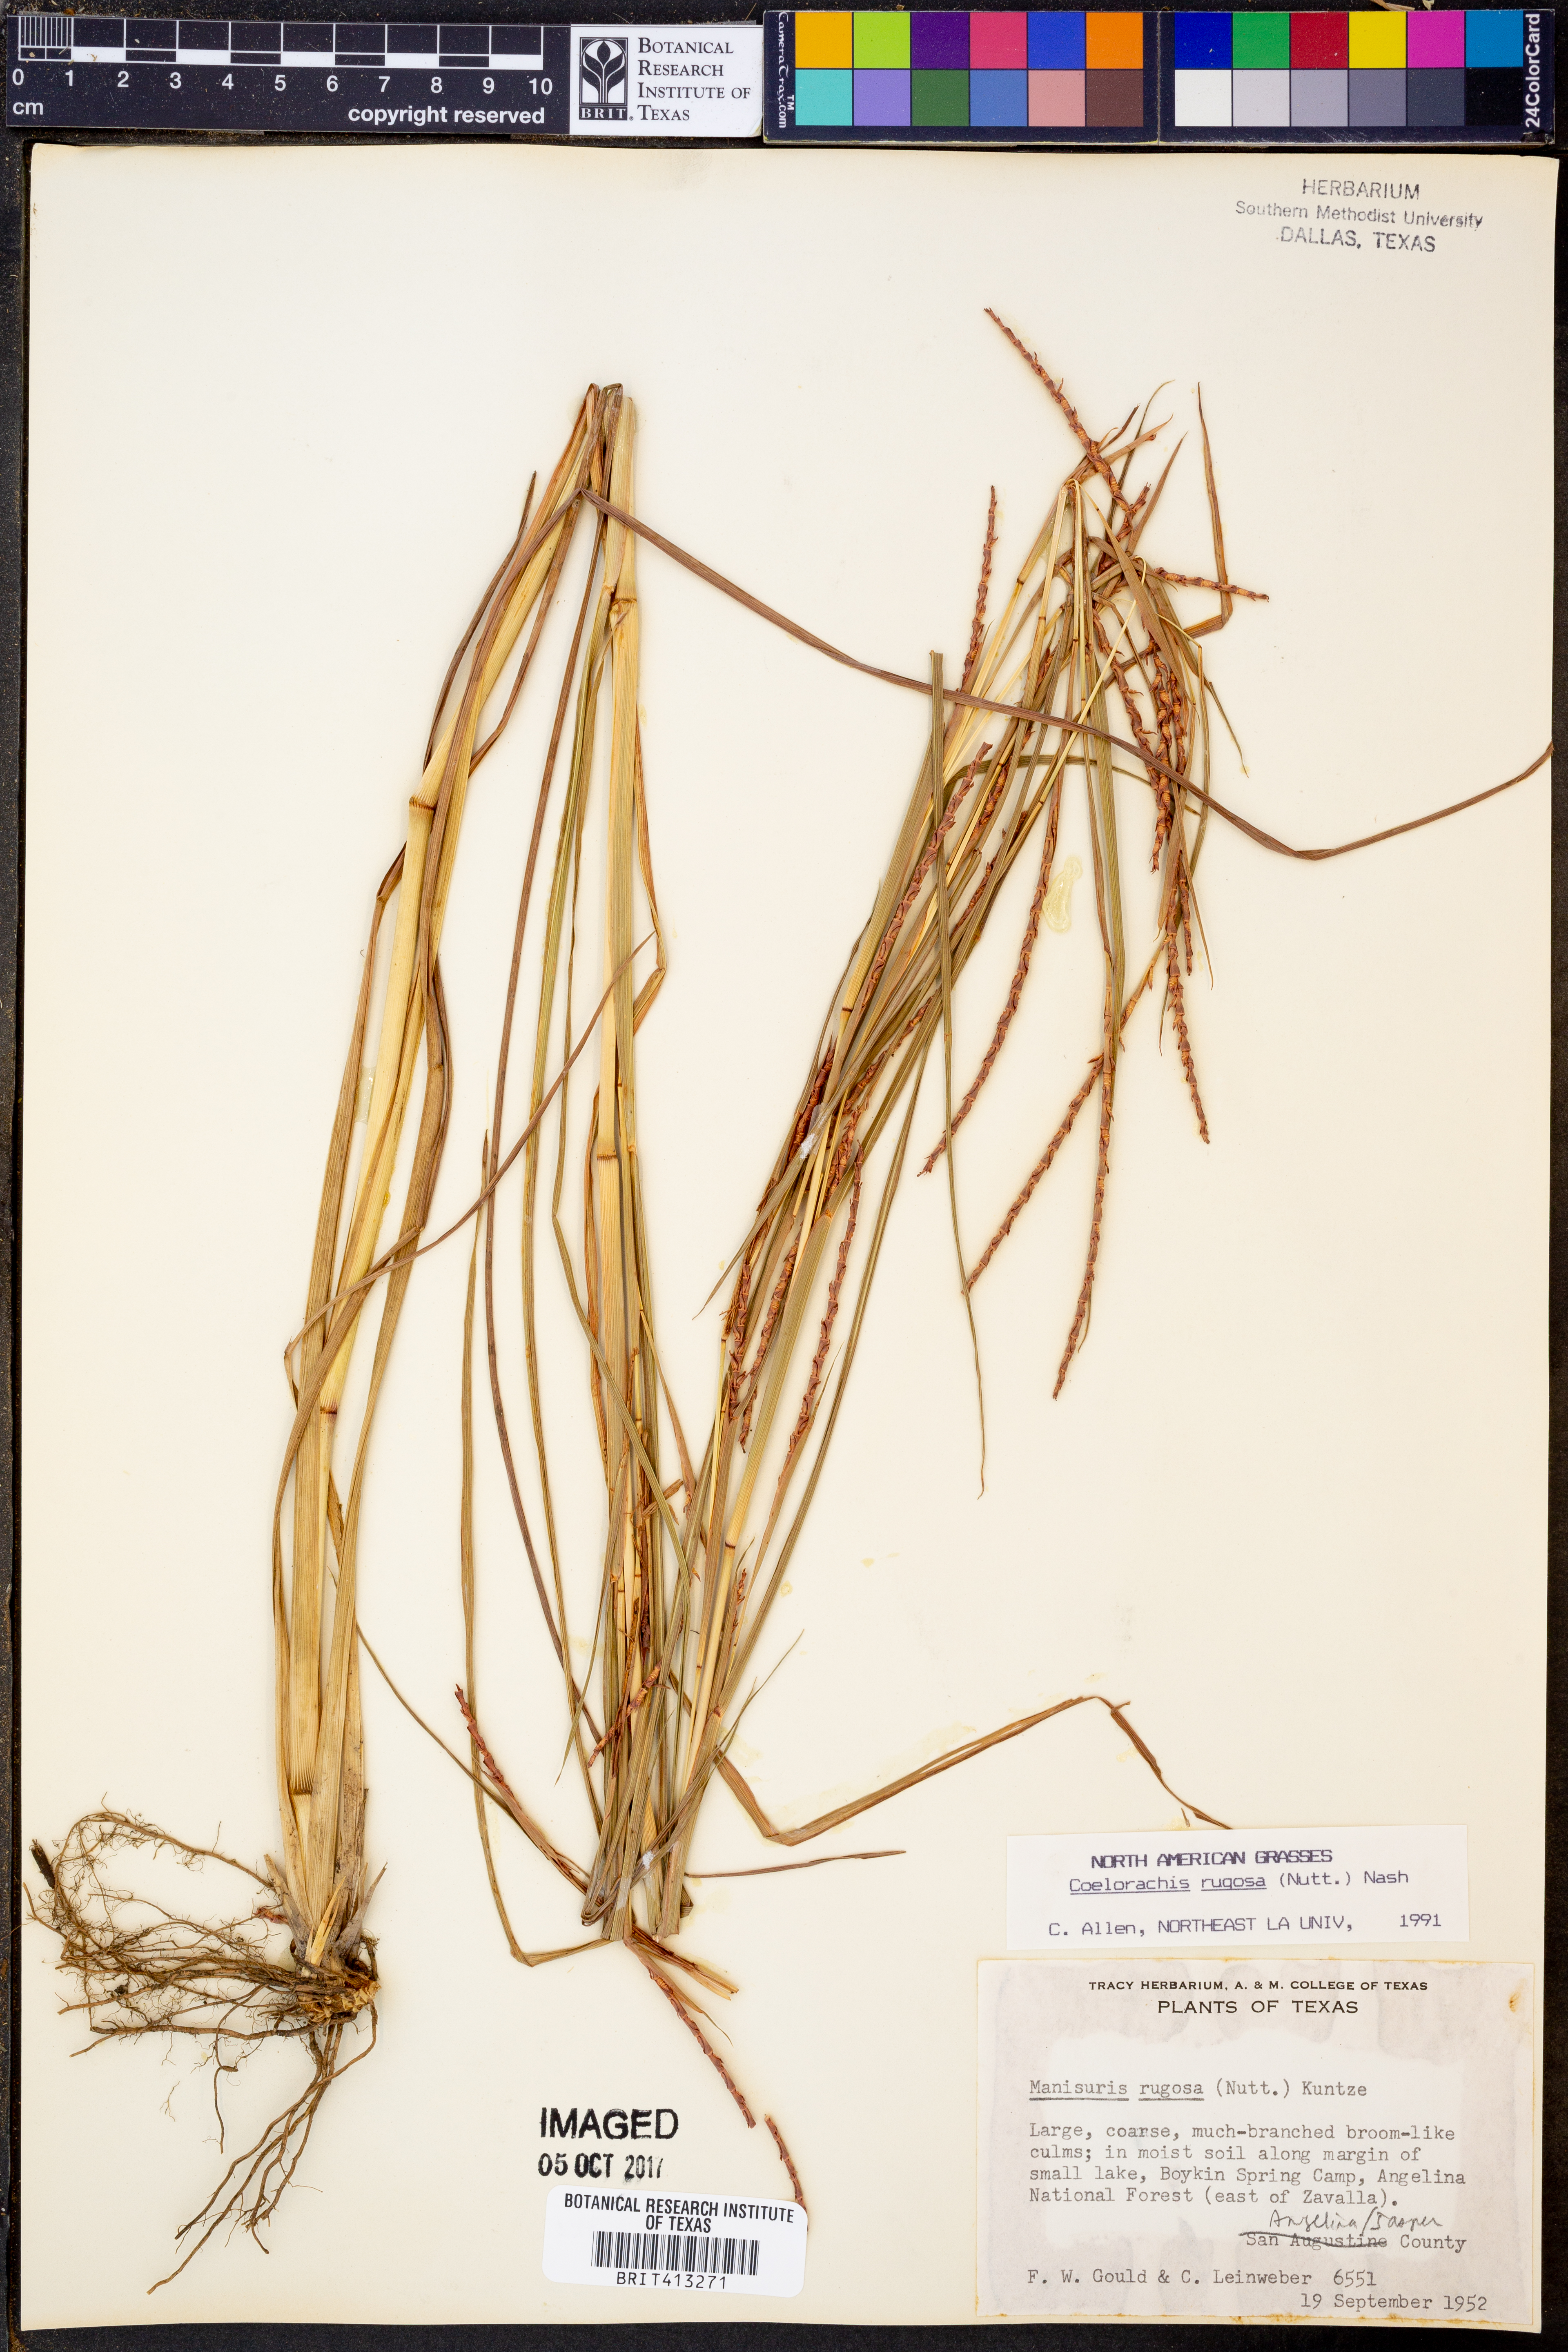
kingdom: Plantae
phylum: Tracheophyta
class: Liliopsida
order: Poales
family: Poaceae
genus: Rottboellia
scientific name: Rottboellia rugosa
